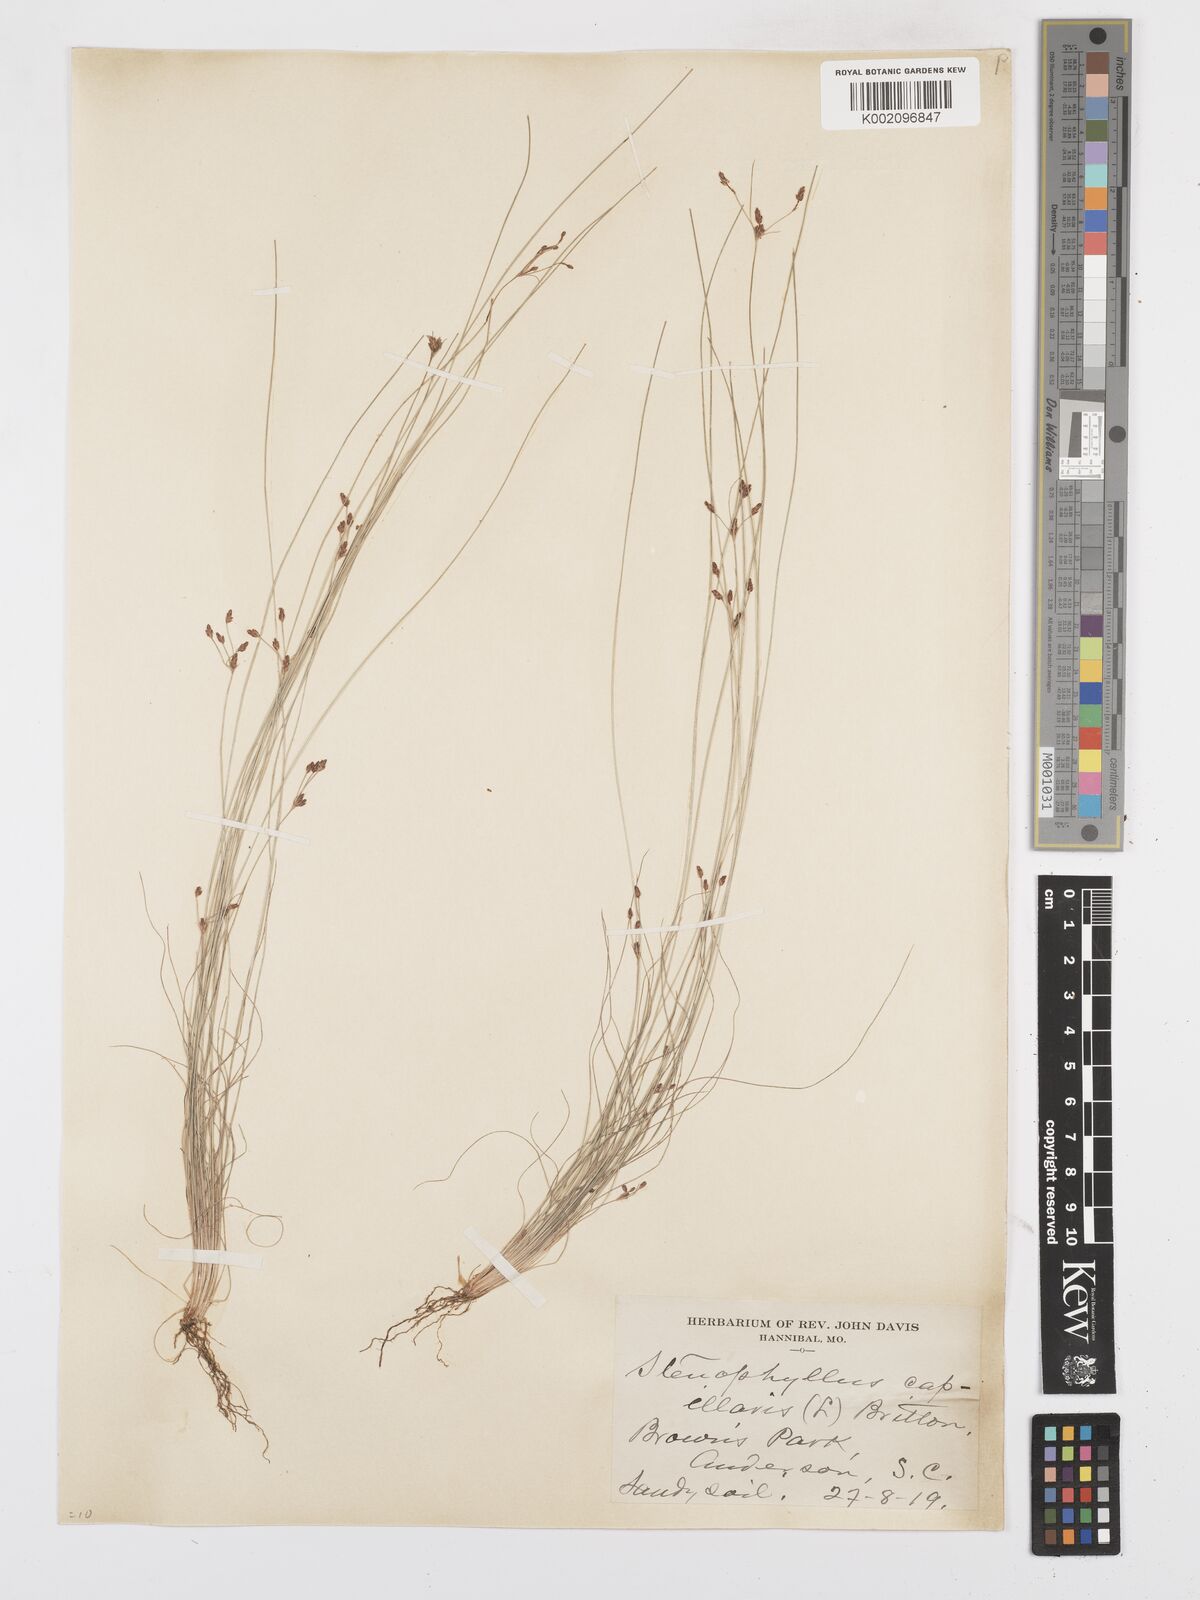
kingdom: Plantae
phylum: Tracheophyta
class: Liliopsida
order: Poales
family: Cyperaceae
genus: Bulbostylis
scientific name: Bulbostylis capillaris
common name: Densetuft hairsedge
